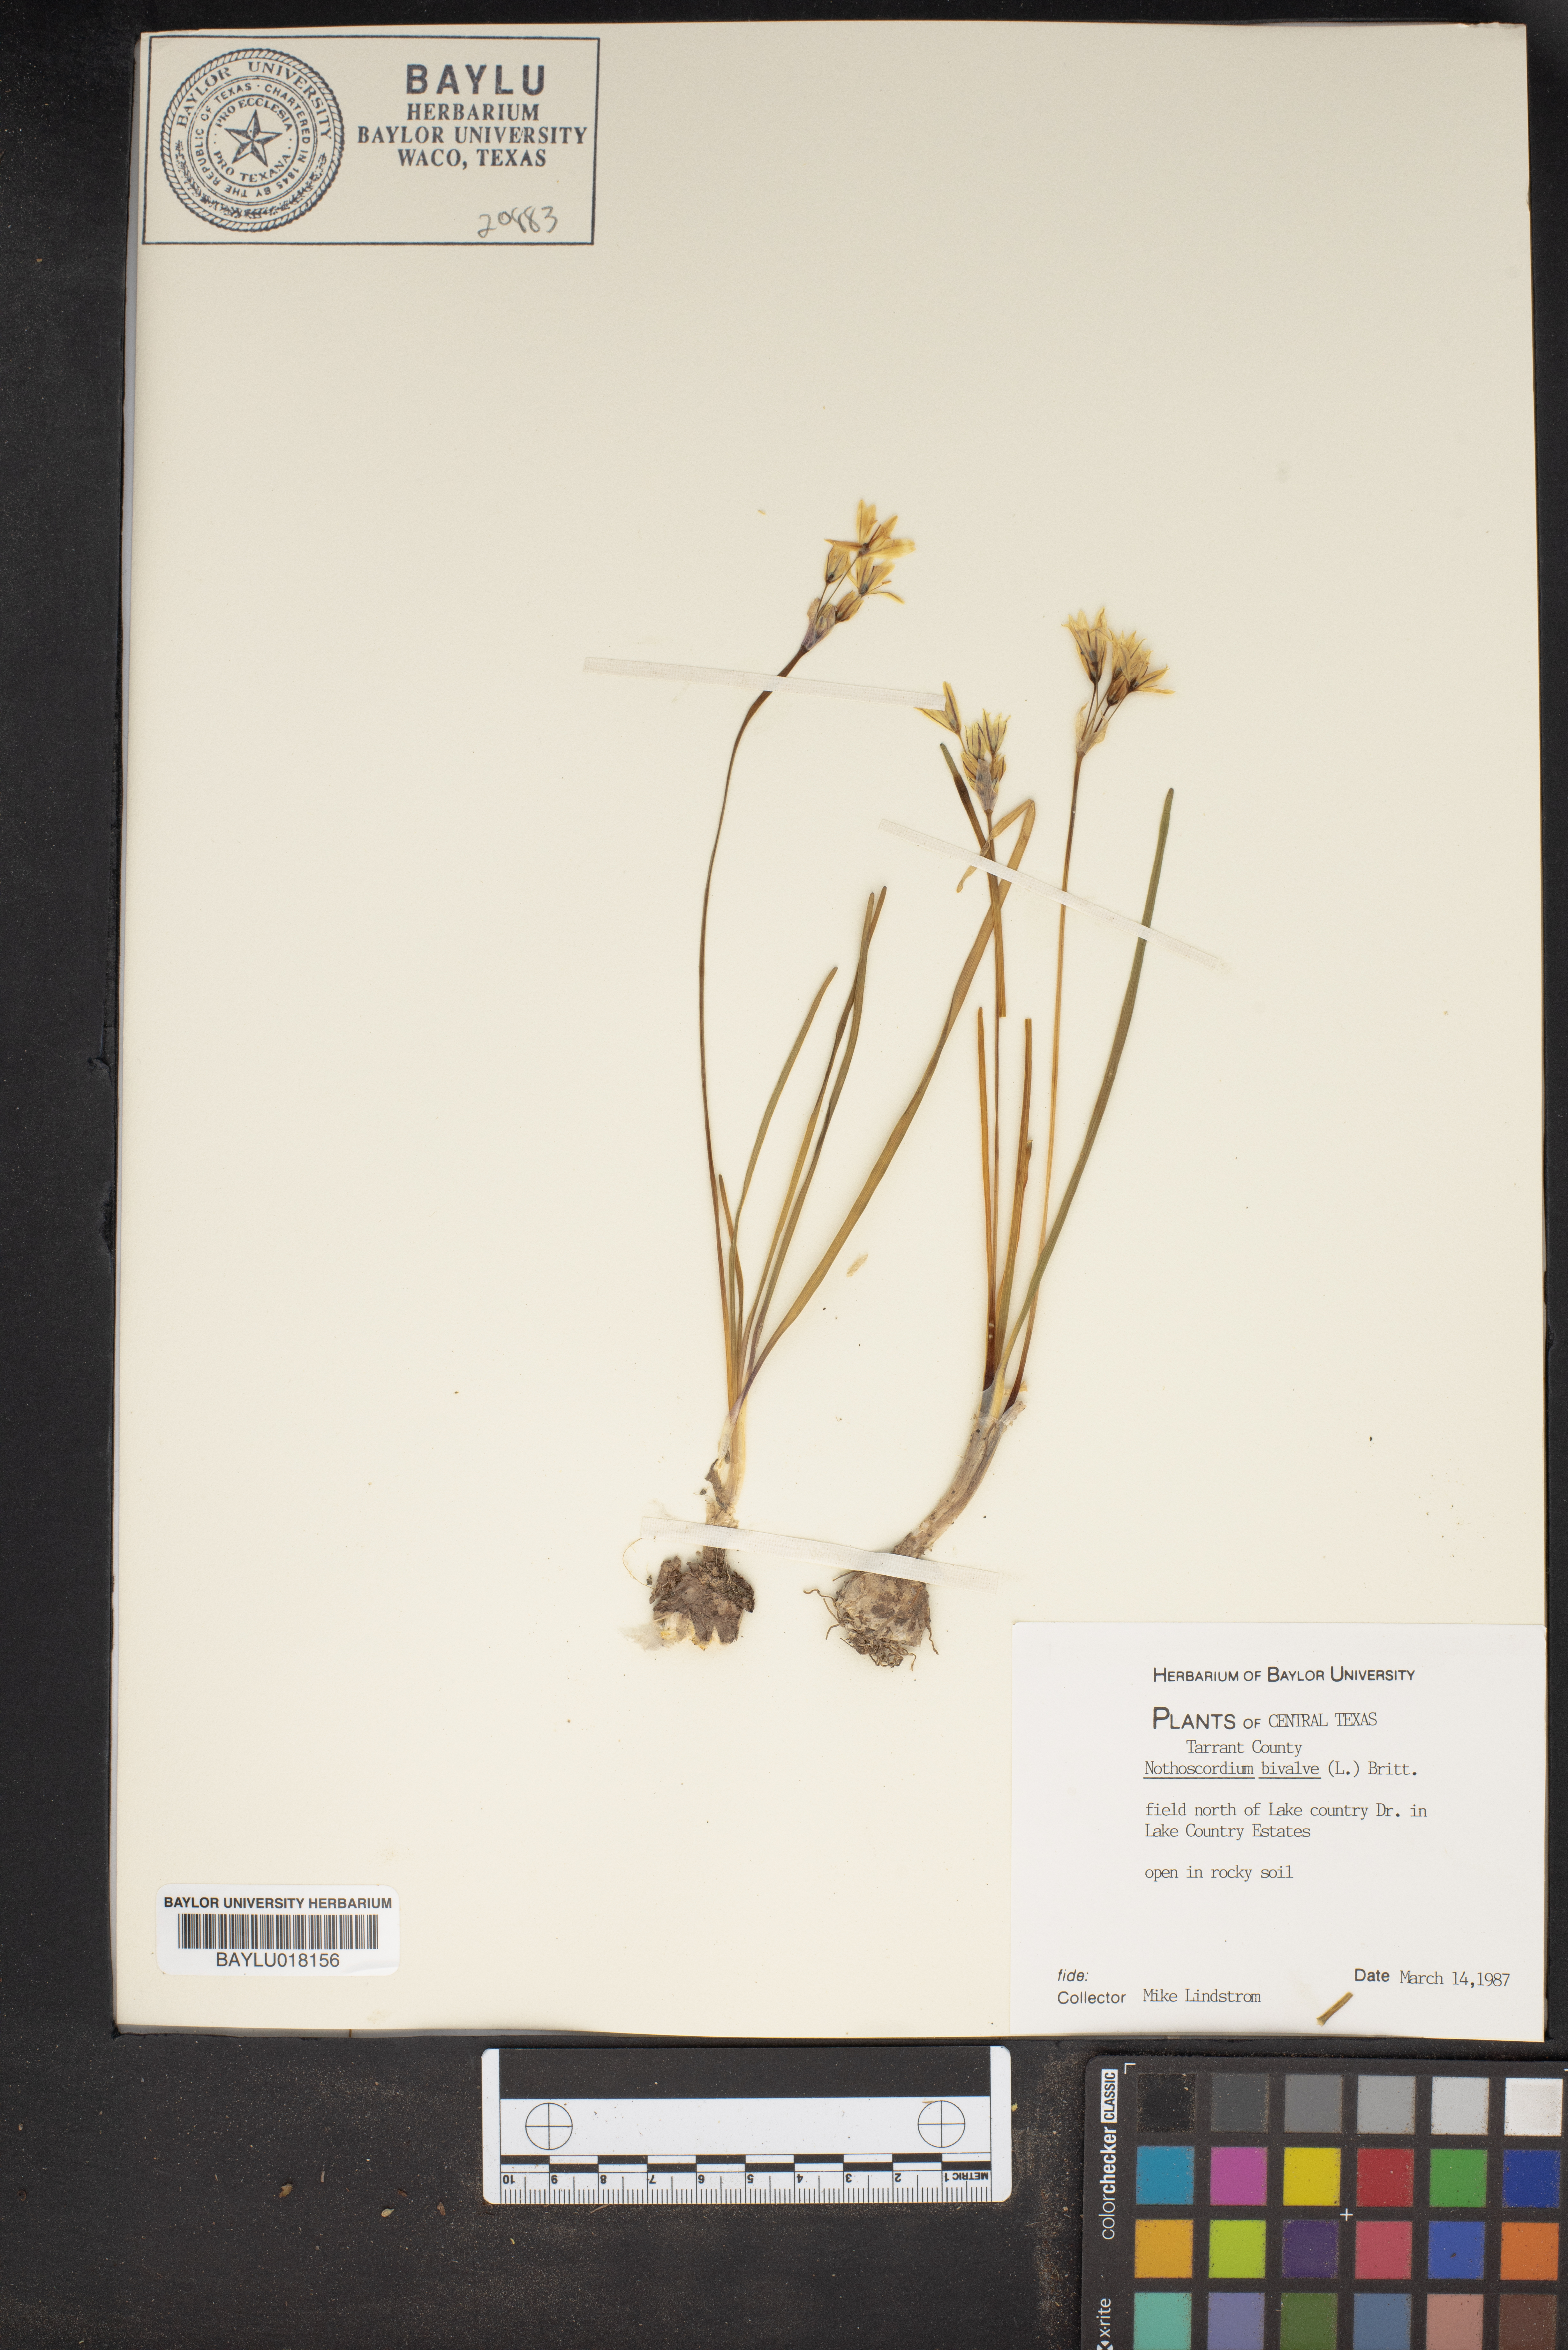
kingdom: Plantae
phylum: Tracheophyta
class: Liliopsida
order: Asparagales
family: Amaryllidaceae
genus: Nothoscordum
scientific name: Nothoscordum bivalve
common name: Crow-poison
